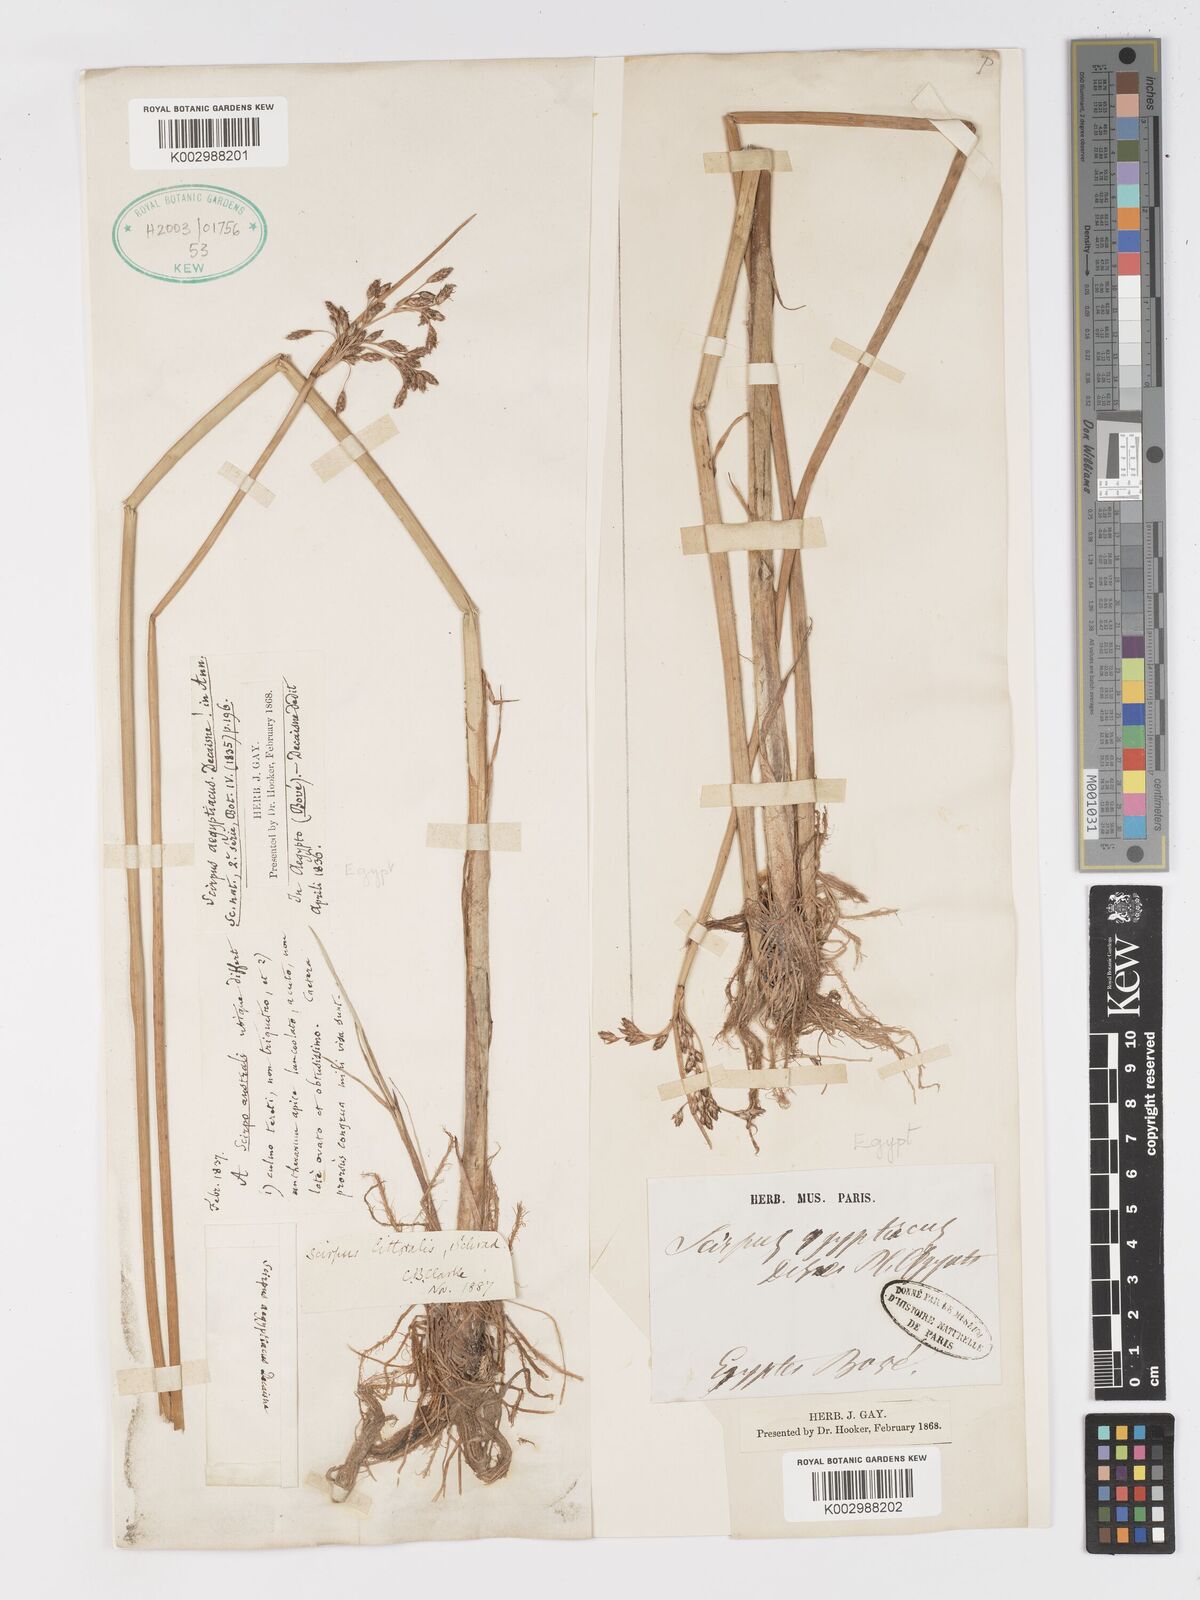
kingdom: Plantae
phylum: Tracheophyta
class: Liliopsida
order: Poales
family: Cyperaceae
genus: Schoenoplectus
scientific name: Schoenoplectus litoralis
